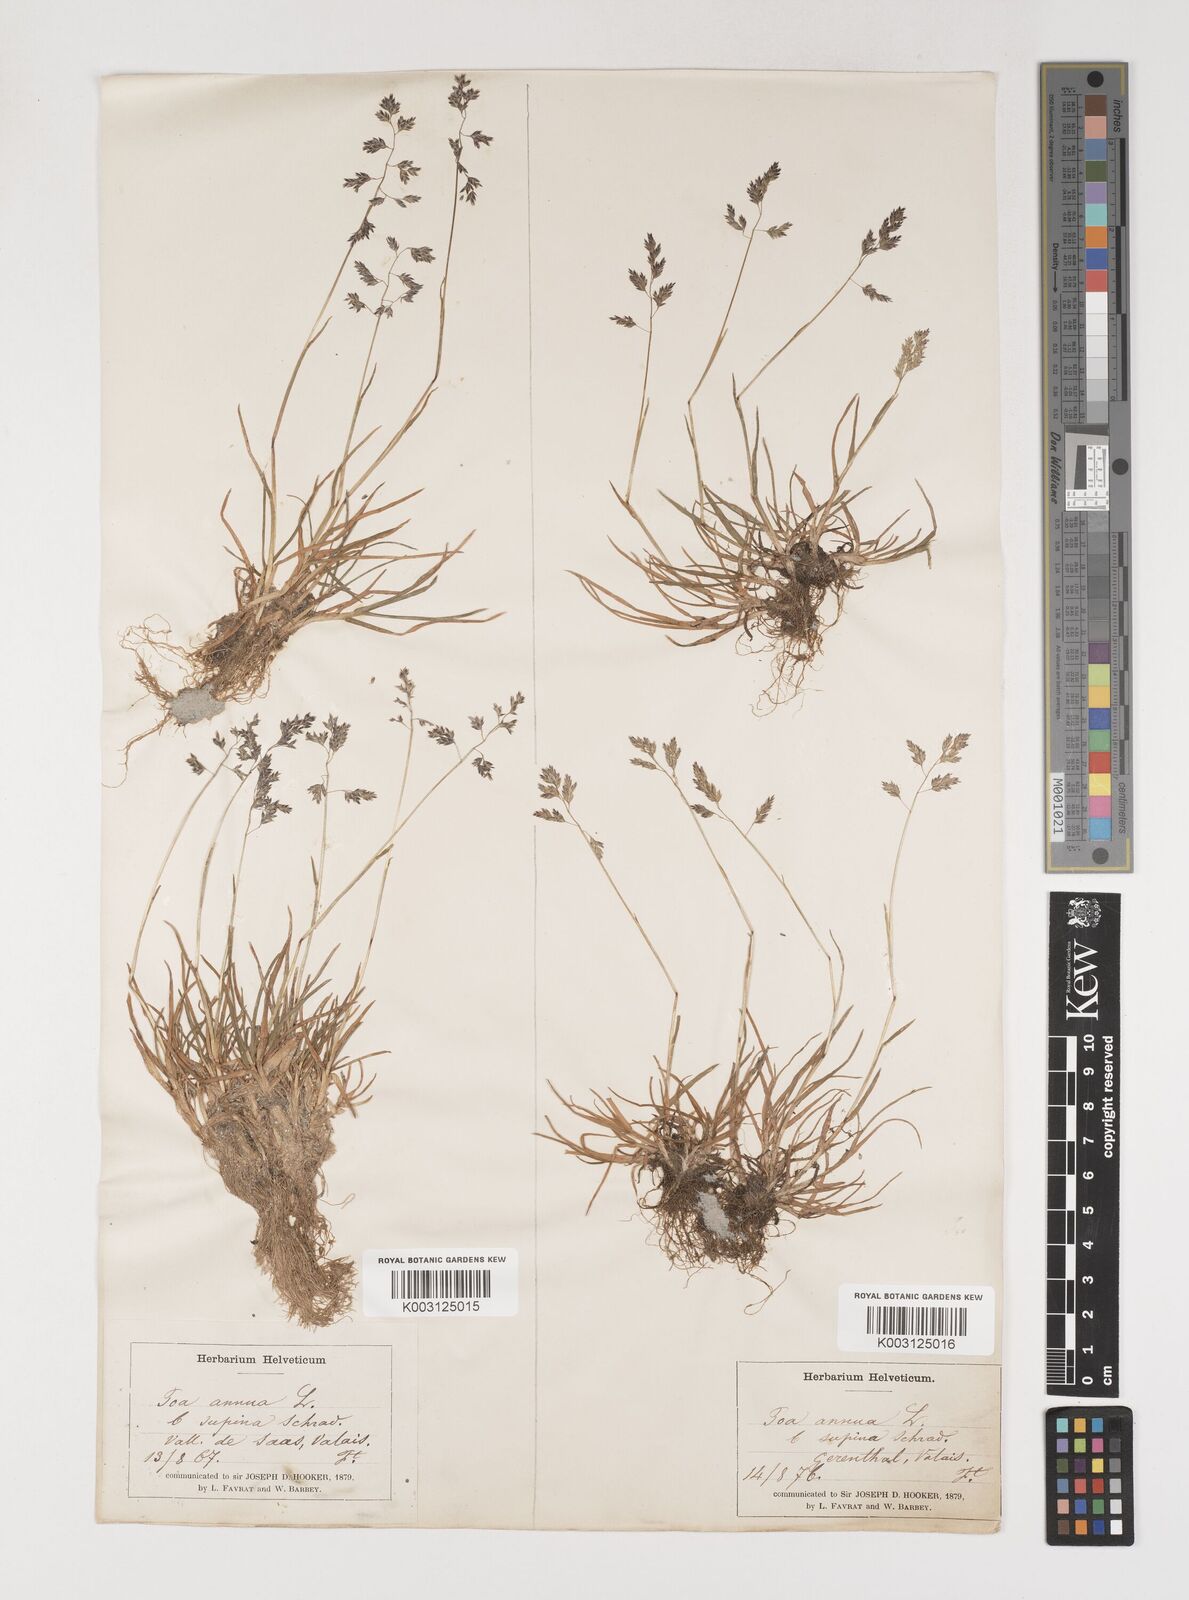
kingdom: Plantae
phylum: Tracheophyta
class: Liliopsida
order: Poales
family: Poaceae
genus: Poa
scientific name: Poa supina
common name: Supina bluegrass
